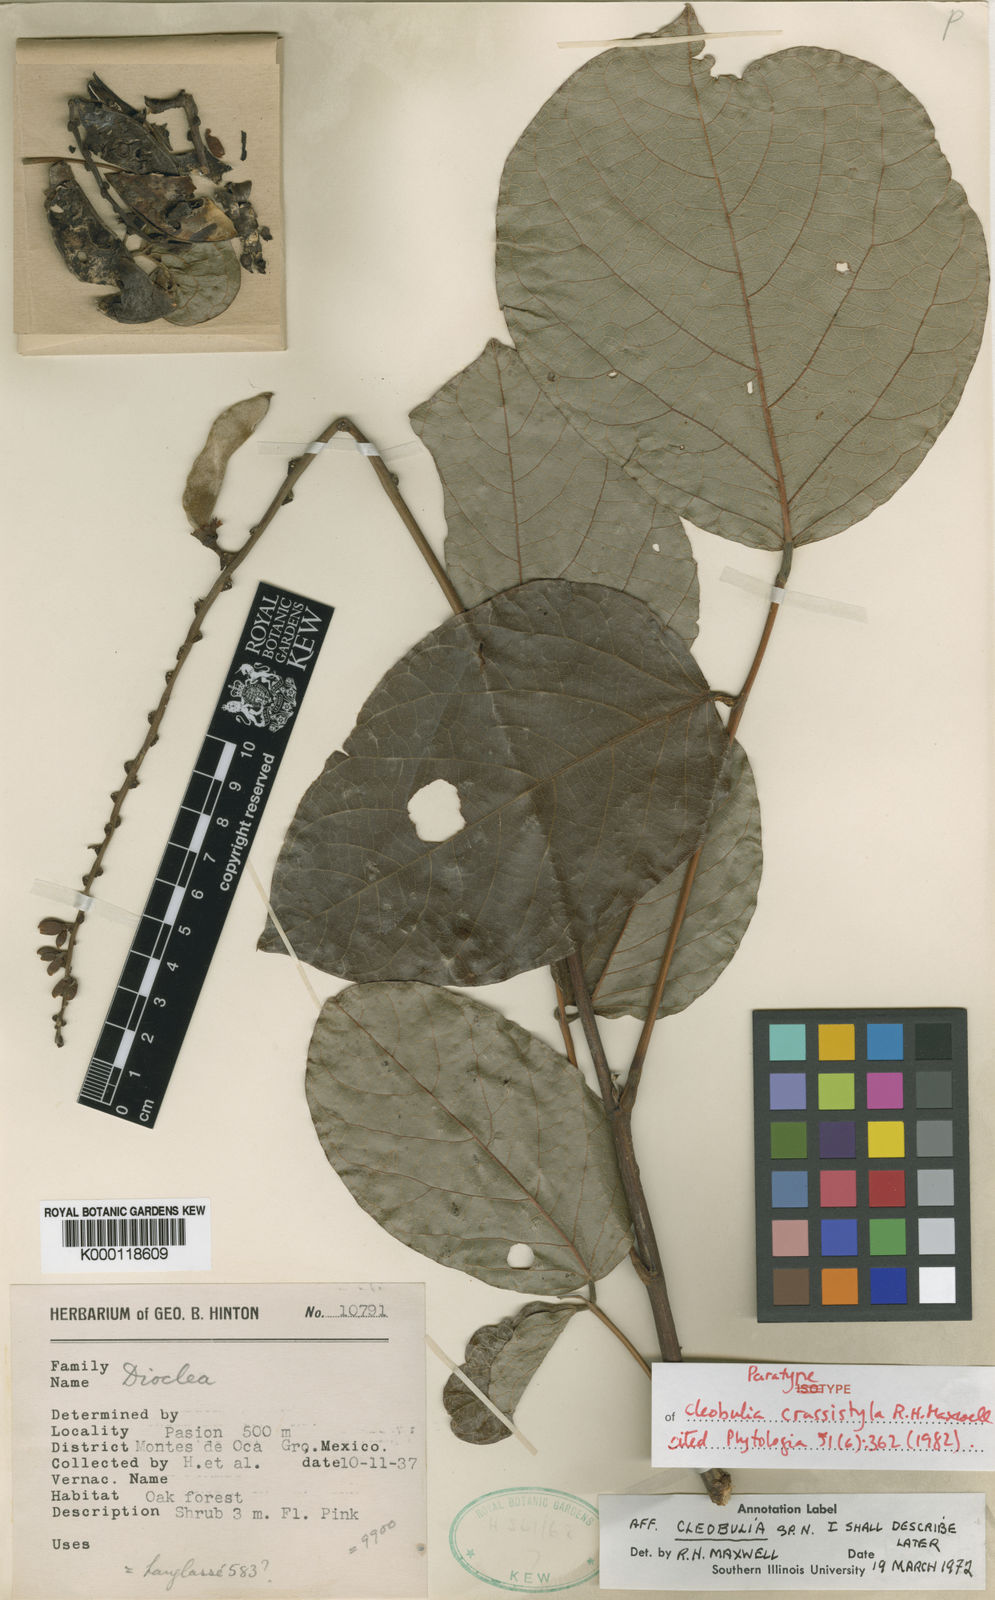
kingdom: Plantae
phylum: Tracheophyta
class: Magnoliopsida
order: Fabales
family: Fabaceae
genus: Cleobulia
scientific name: Cleobulia crassistyla
